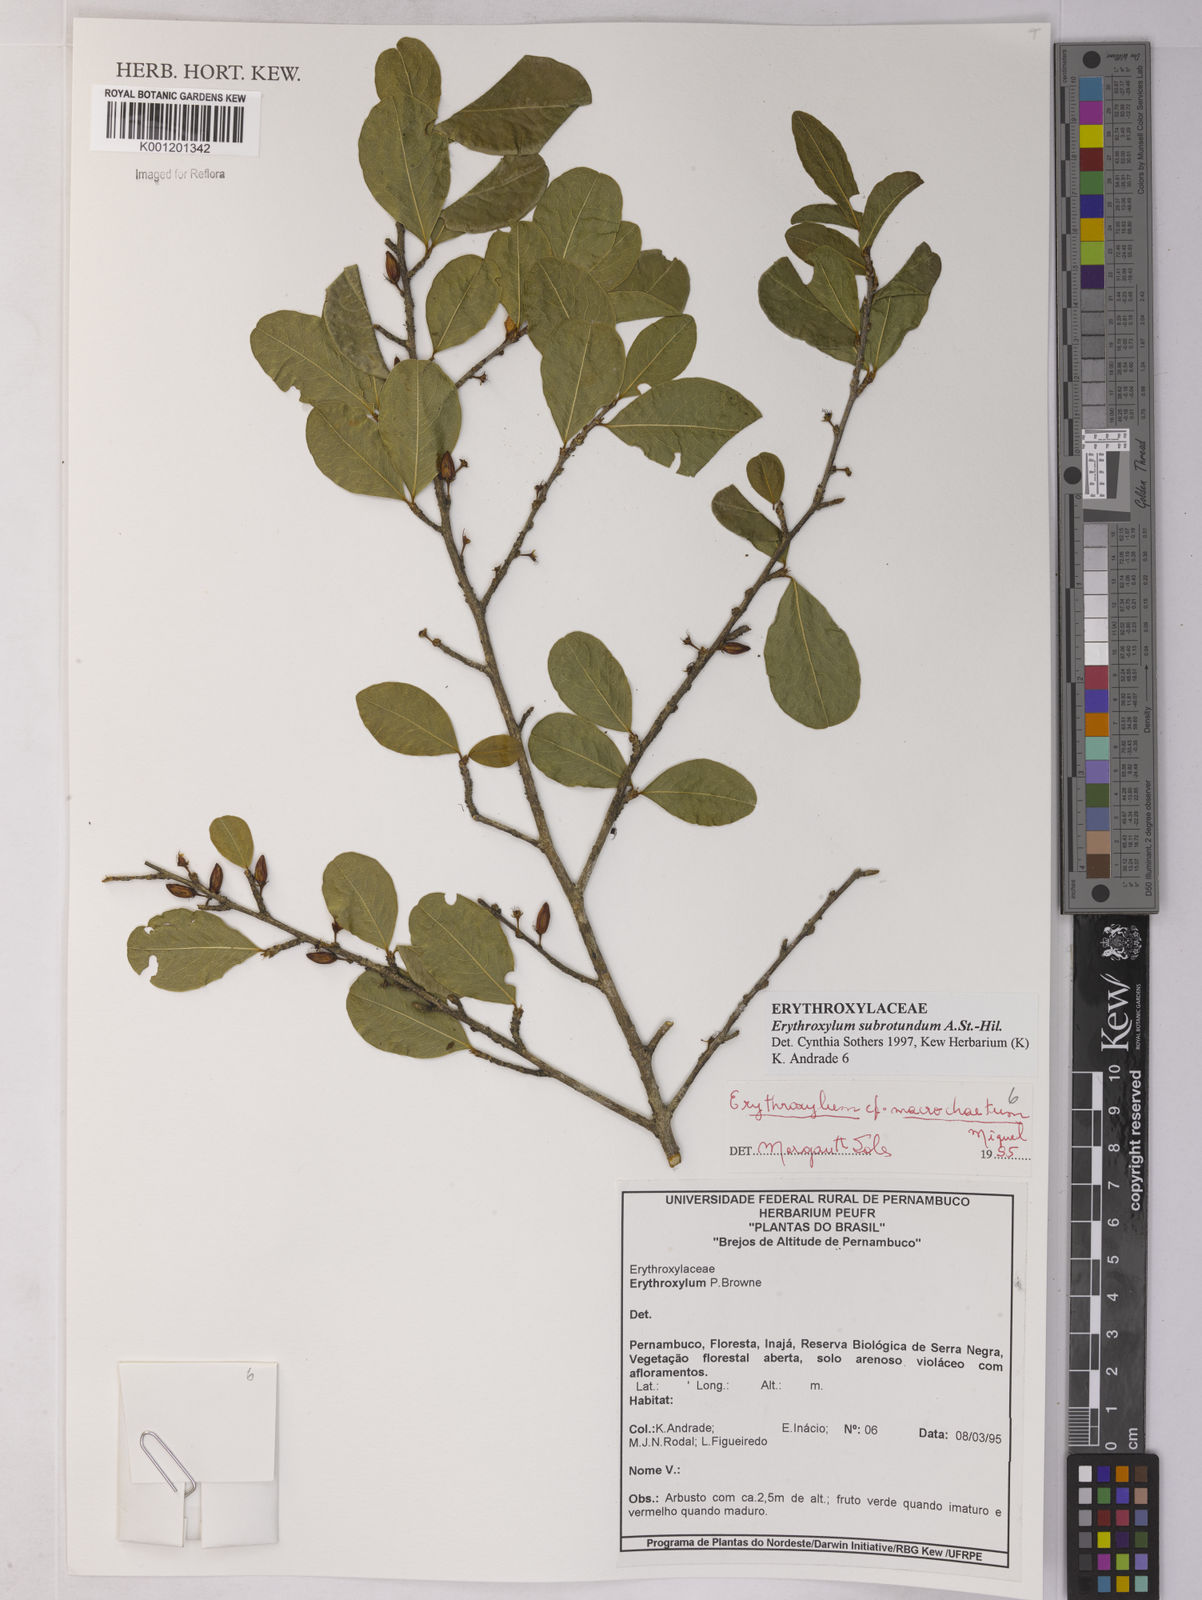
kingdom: Plantae
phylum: Tracheophyta
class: Magnoliopsida
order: Malpighiales
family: Erythroxylaceae
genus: Erythroxylum
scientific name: Erythroxylum subrotundum
